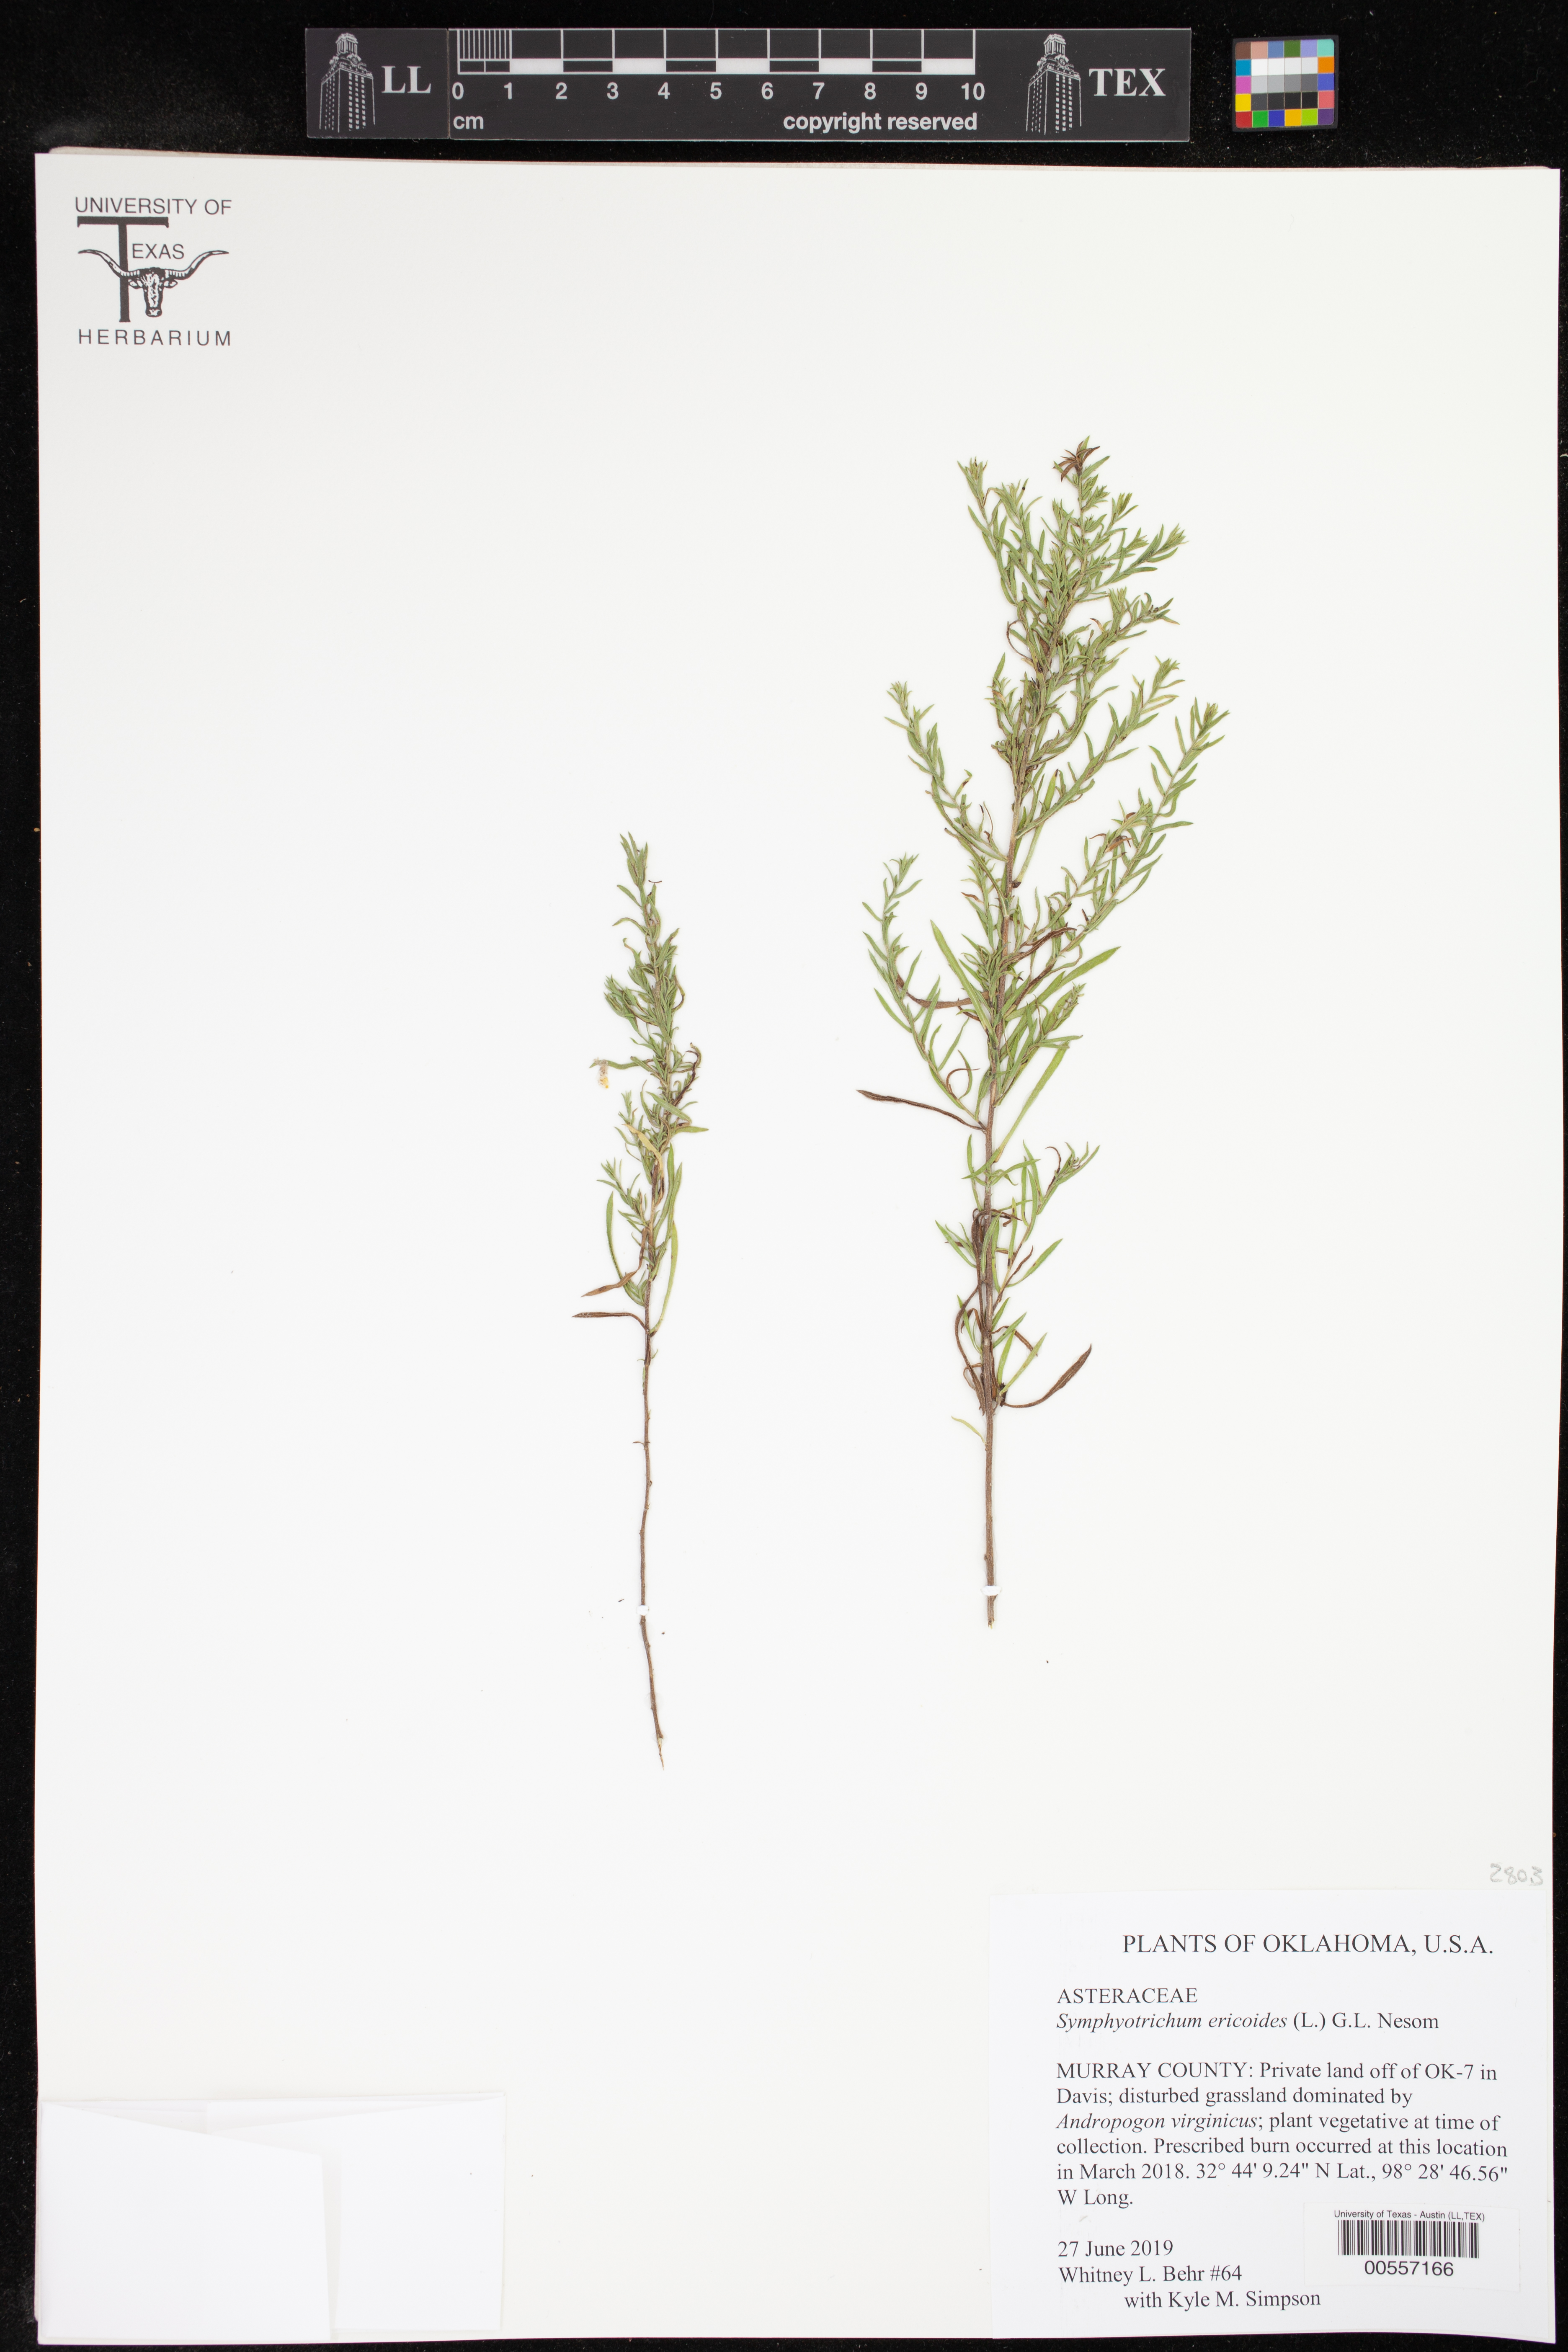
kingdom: Plantae
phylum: Tracheophyta
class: Magnoliopsida
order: Asterales
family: Asteraceae
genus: Symphyotrichum
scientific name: Symphyotrichum ericoides
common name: Heath aster
